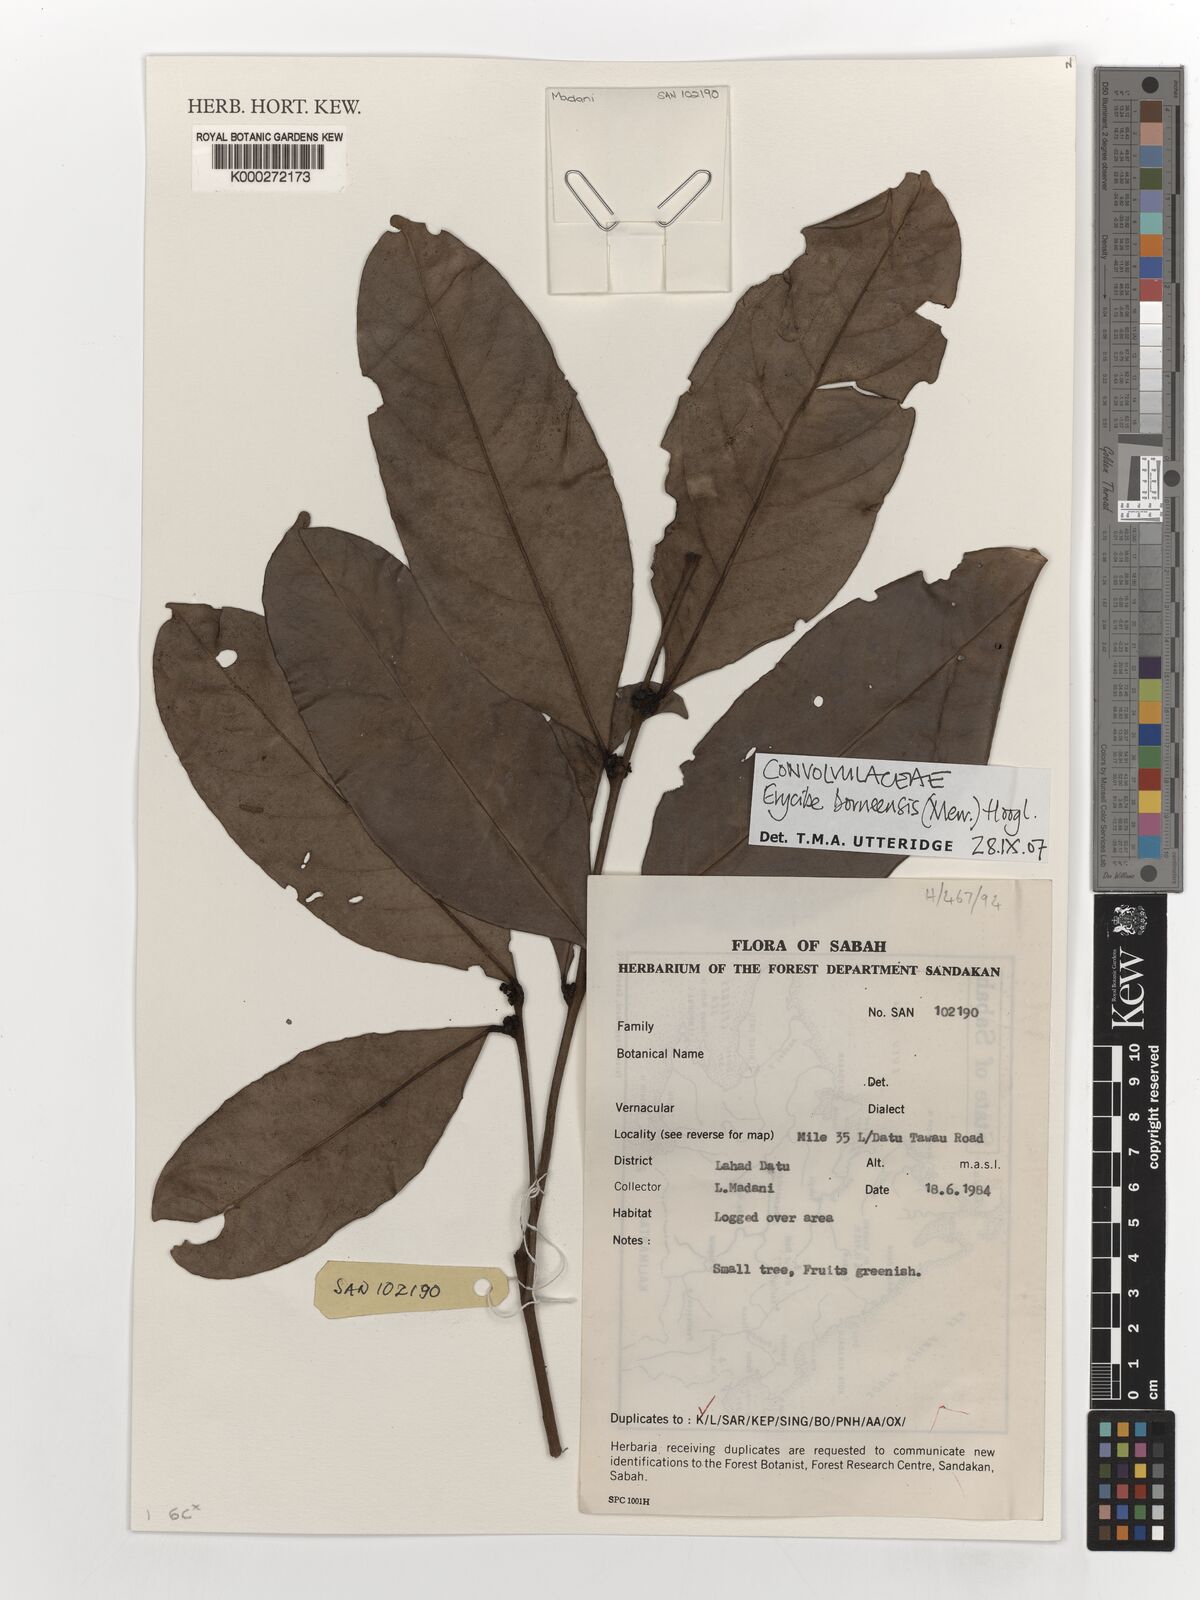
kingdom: Plantae
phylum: Tracheophyta
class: Magnoliopsida
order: Solanales
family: Convolvulaceae
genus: Erycibe
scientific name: Erycibe borneensis
